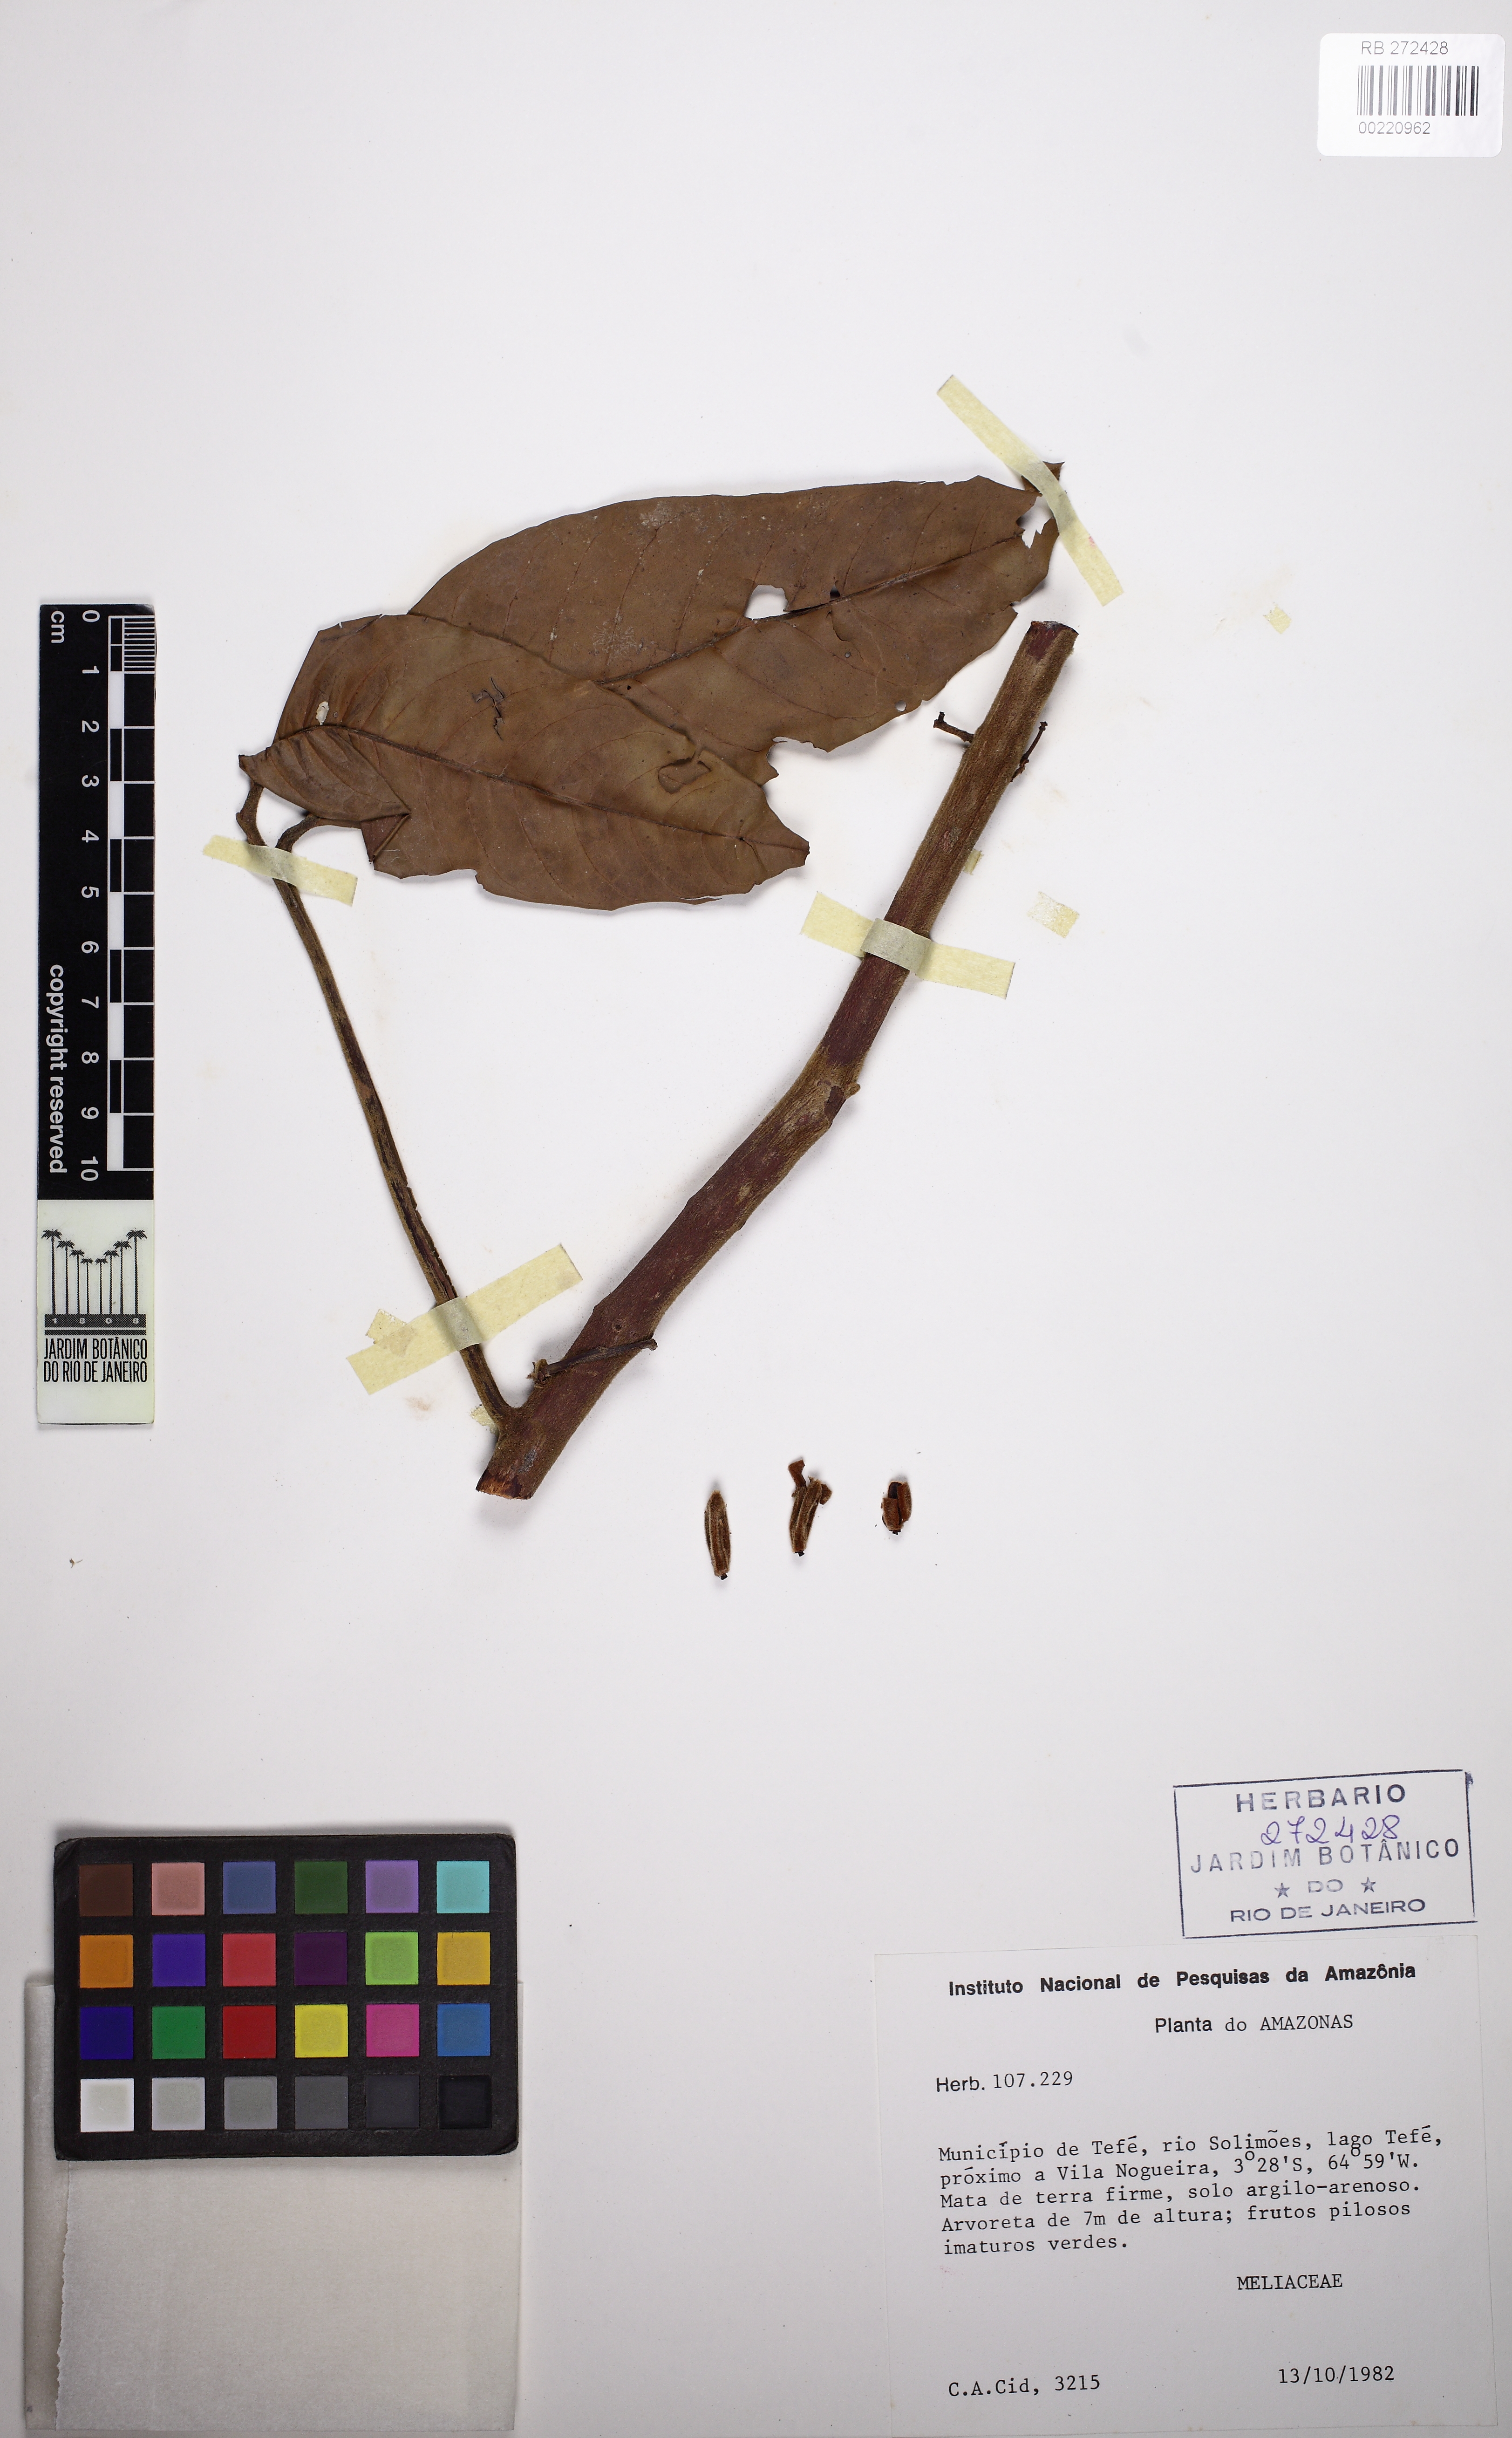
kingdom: Plantae
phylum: Tracheophyta
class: Magnoliopsida
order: Sapindales
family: Meliaceae
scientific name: Meliaceae
